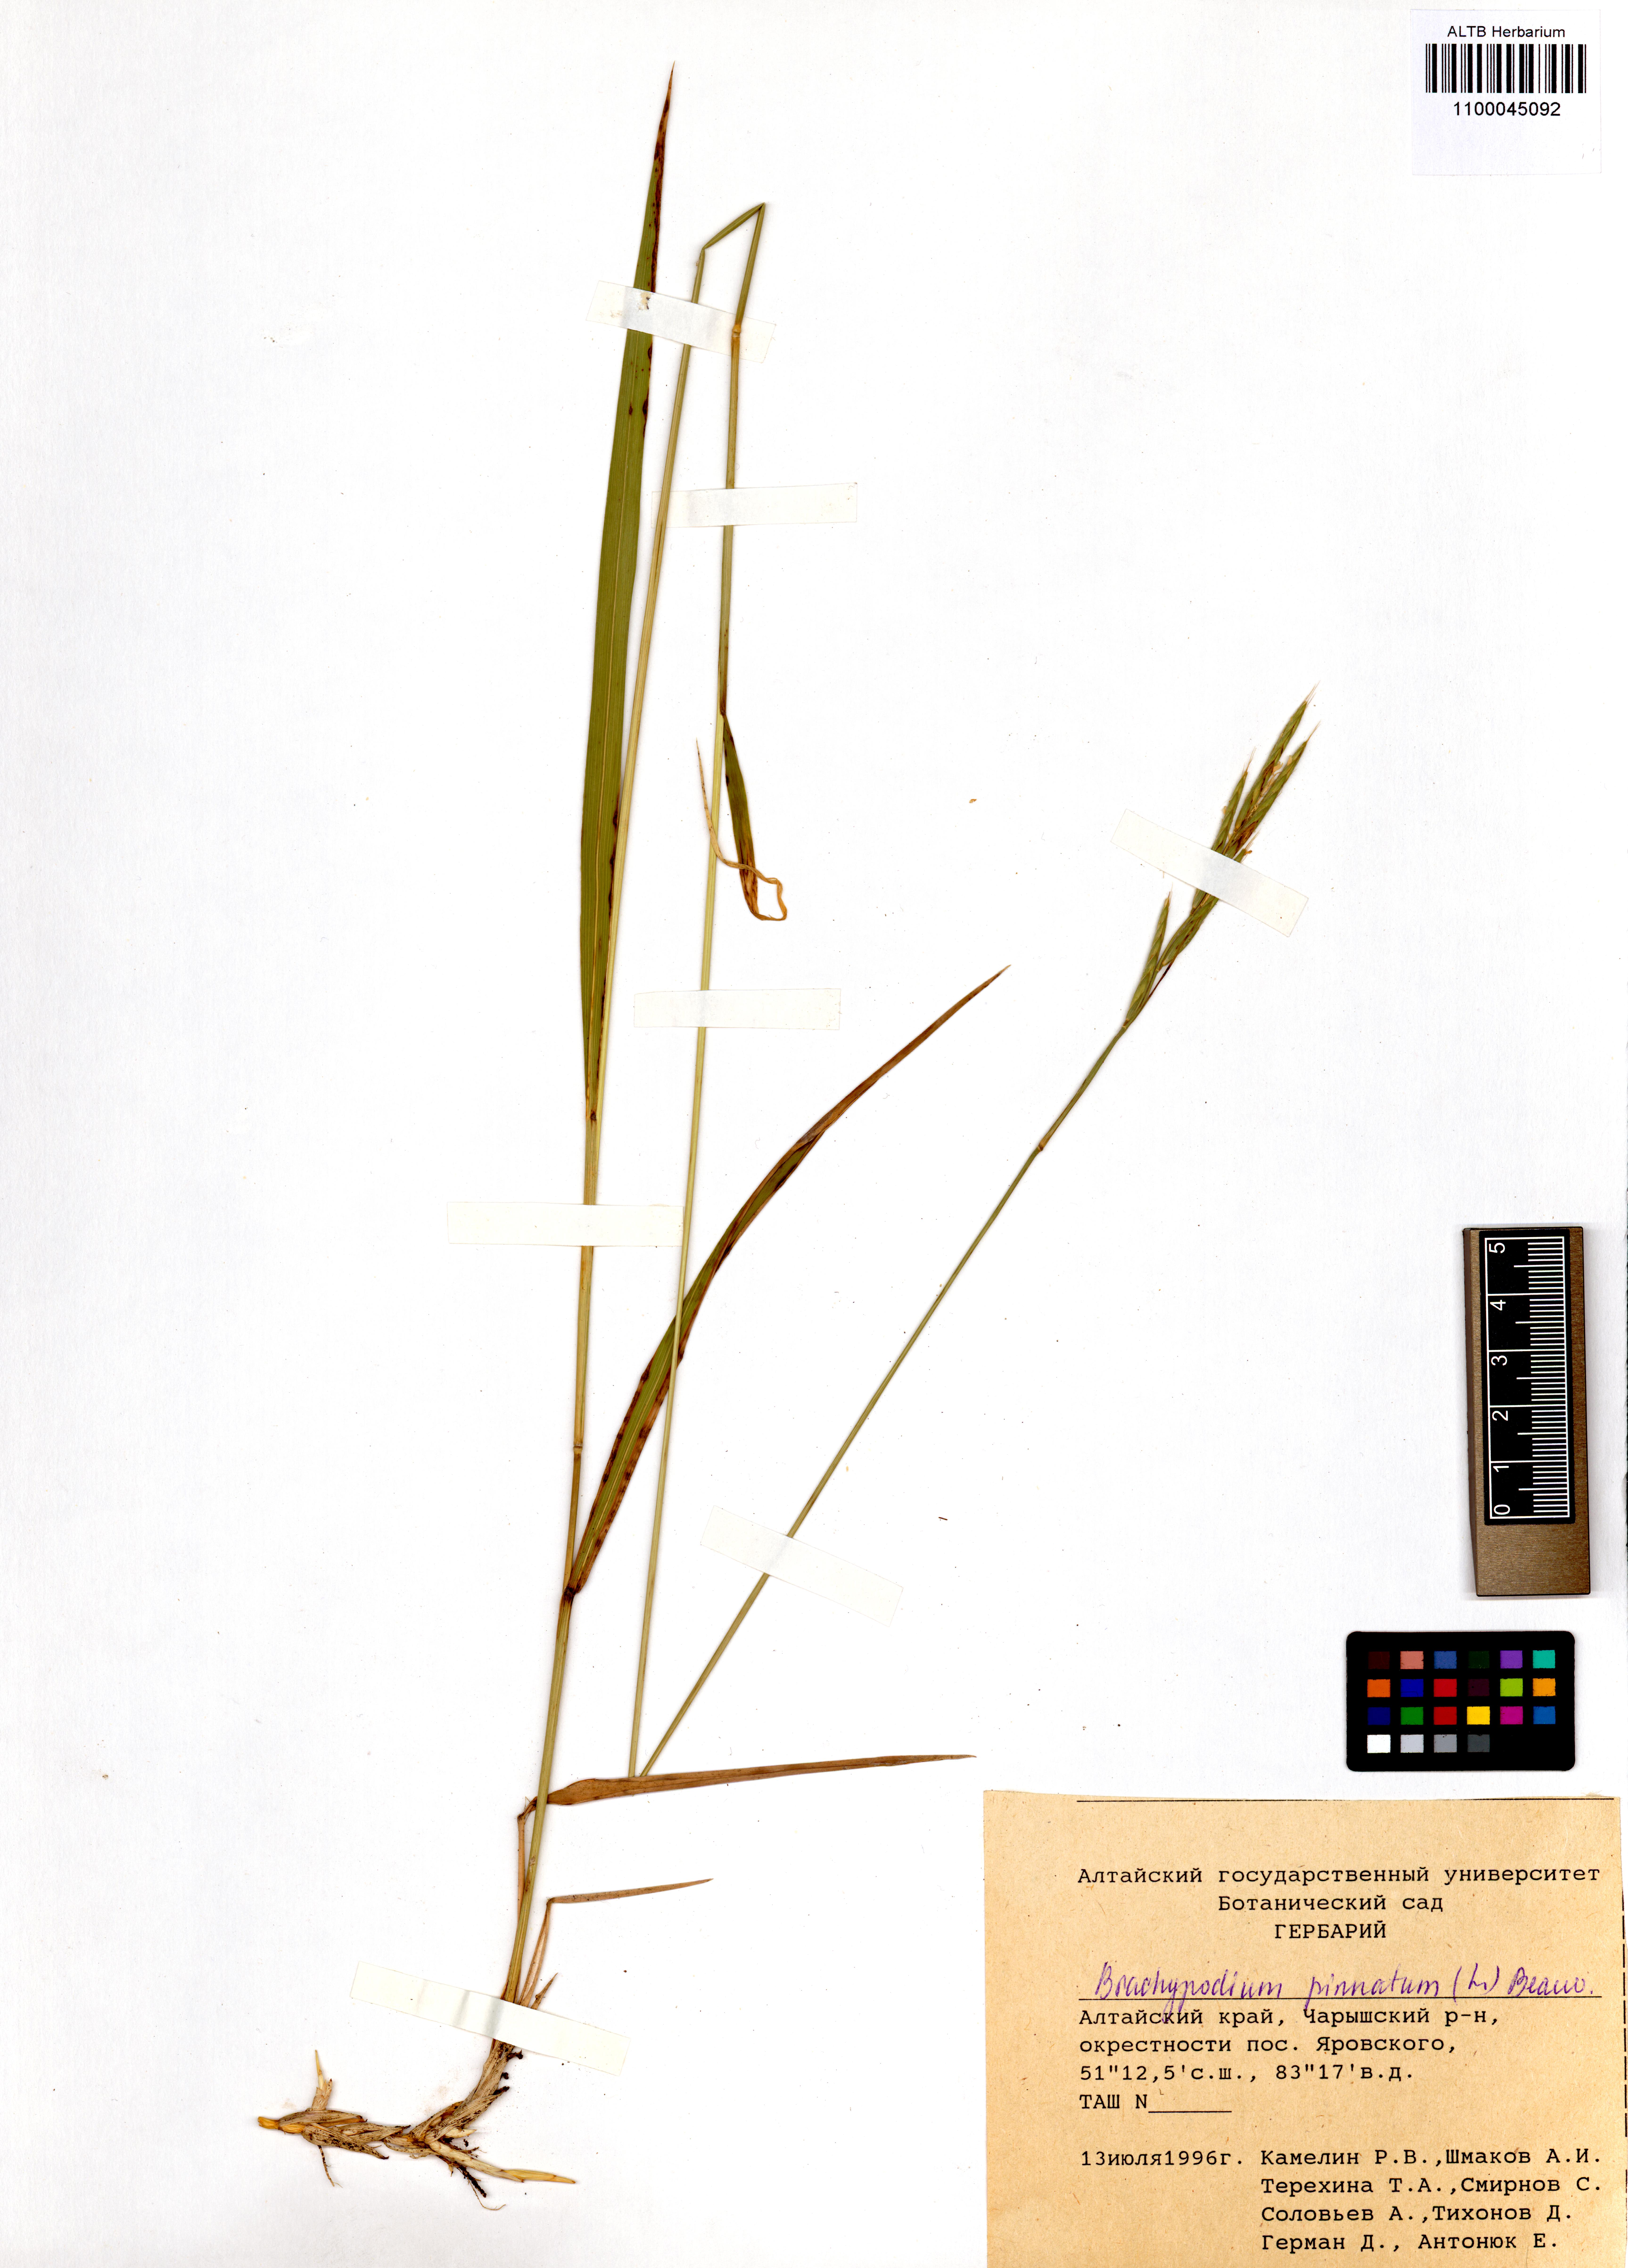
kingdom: Plantae
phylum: Tracheophyta
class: Liliopsida
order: Poales
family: Poaceae
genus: Brachypodium
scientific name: Brachypodium pinnatum
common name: Tor grass
